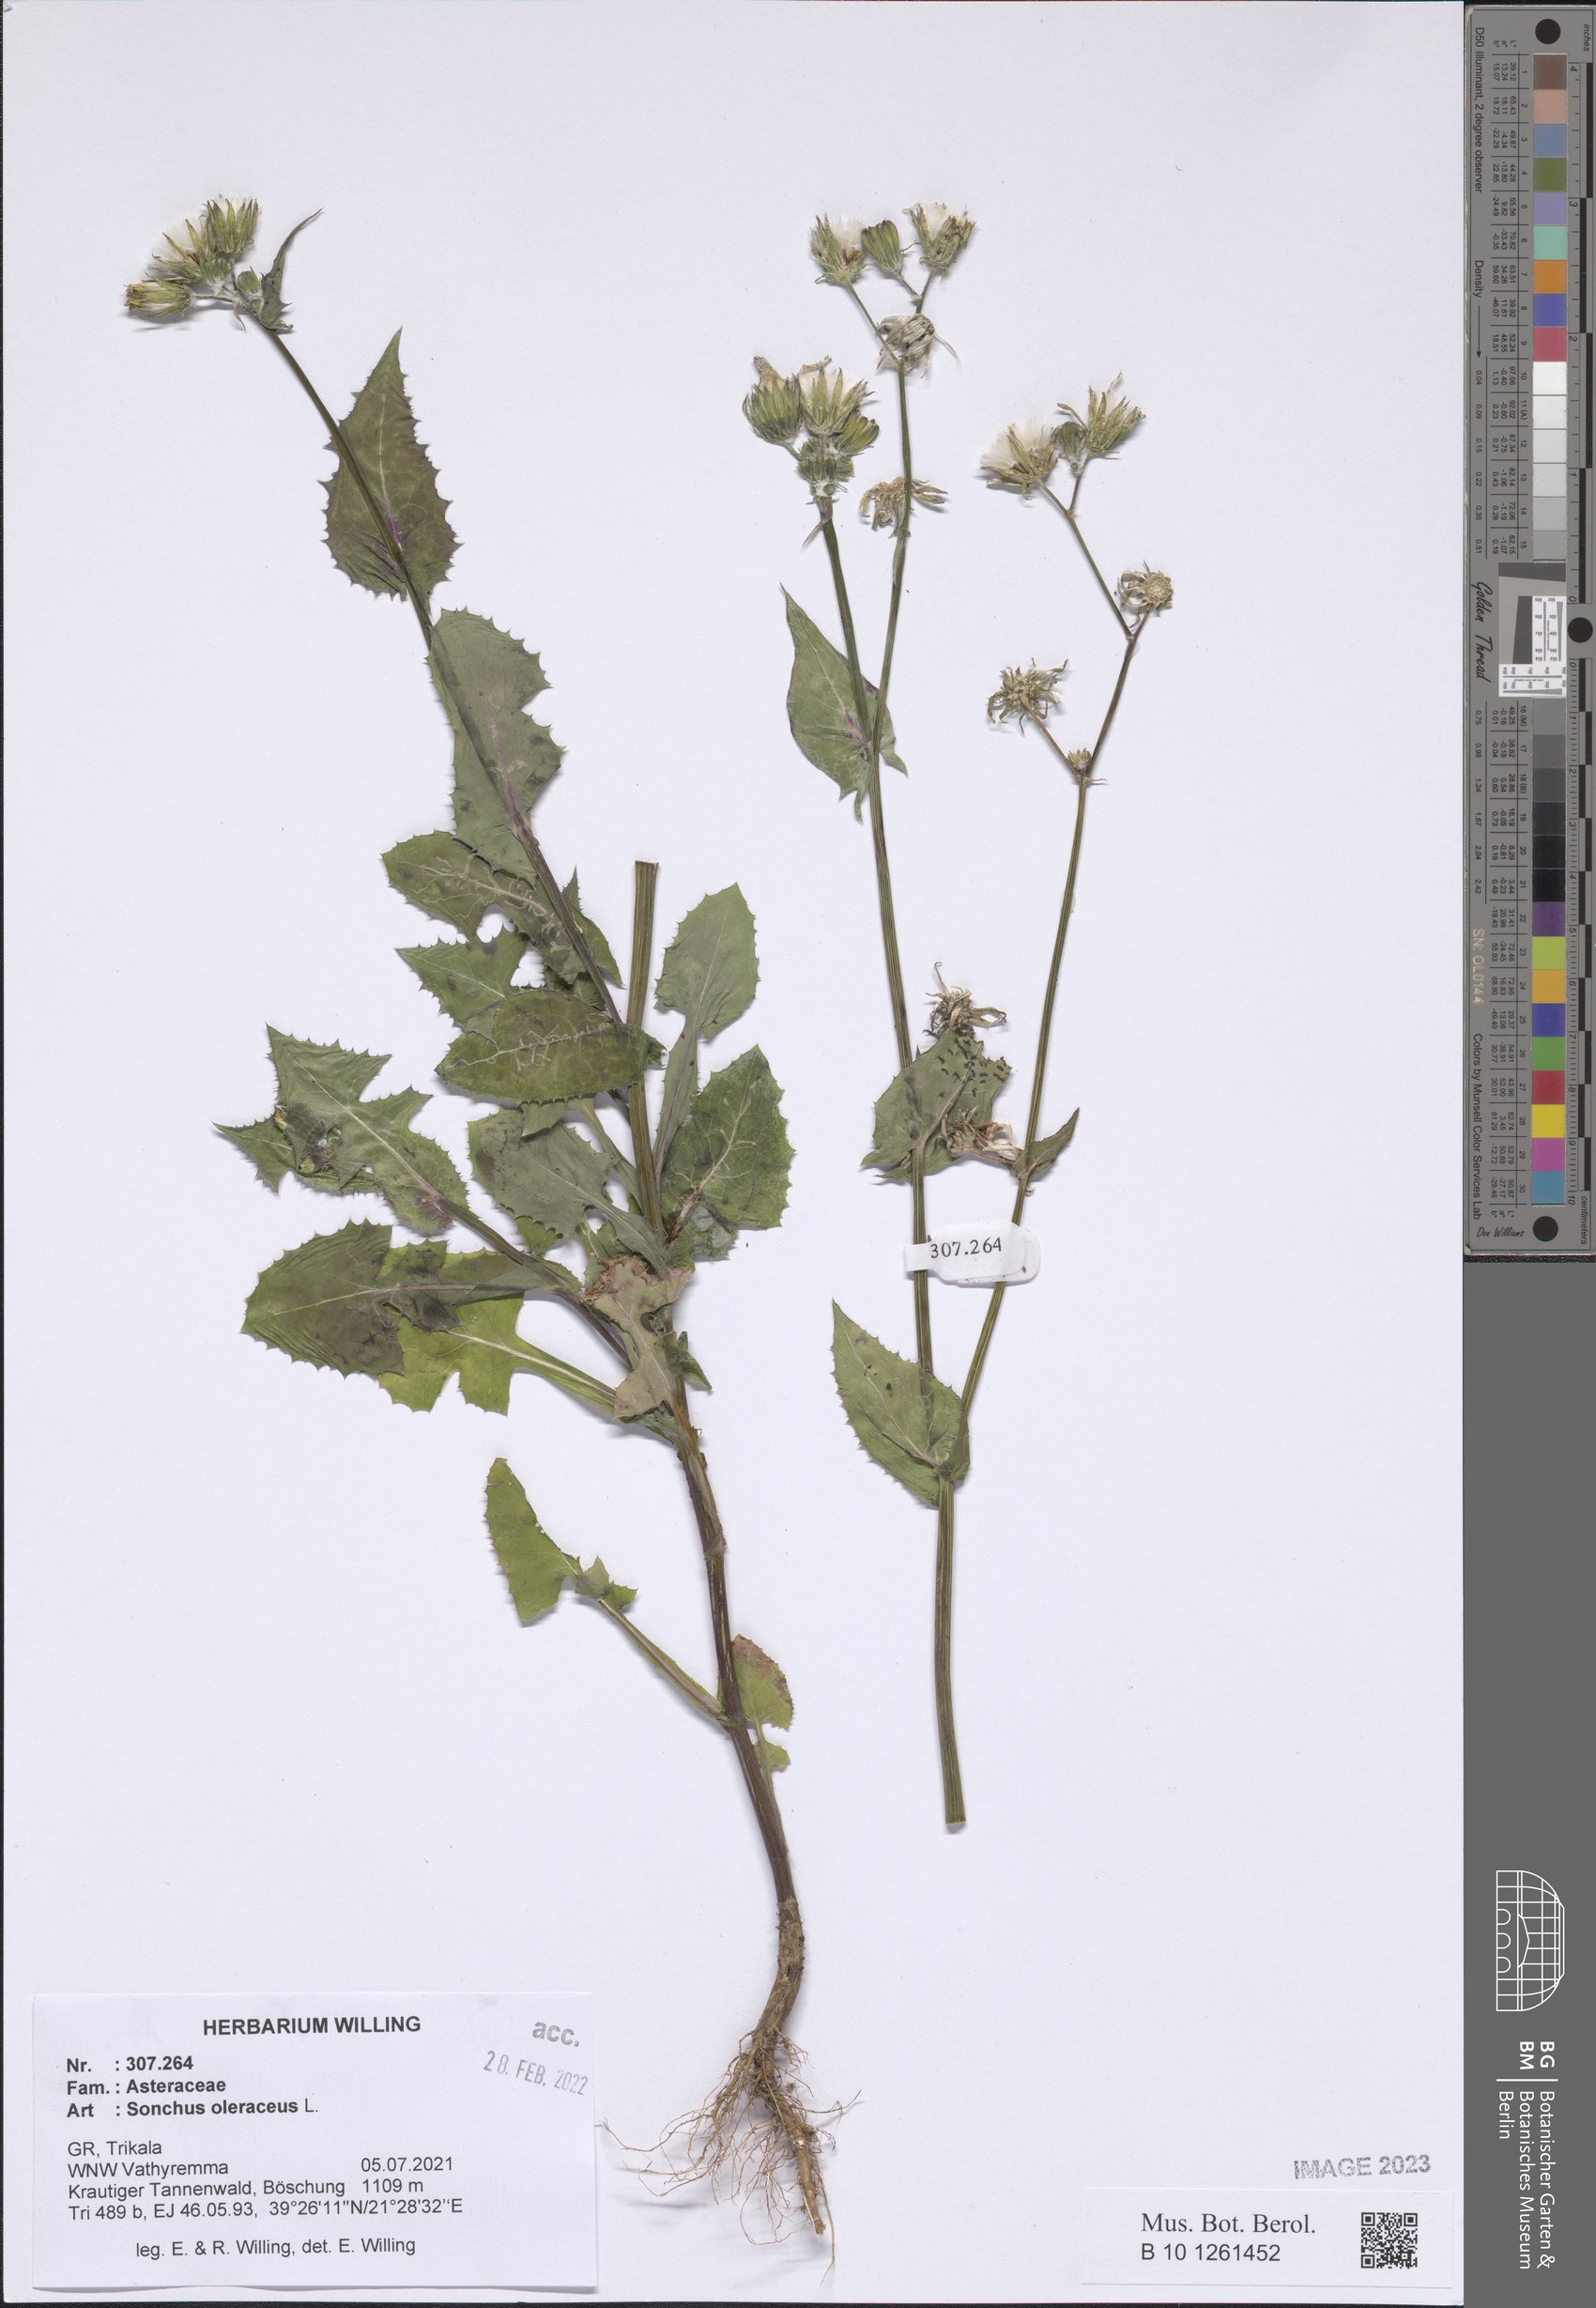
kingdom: Plantae
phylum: Tracheophyta
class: Magnoliopsida
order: Lamiales
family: Scrophulariaceae
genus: Scrophularia
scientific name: Scrophularia canina
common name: French figwort
